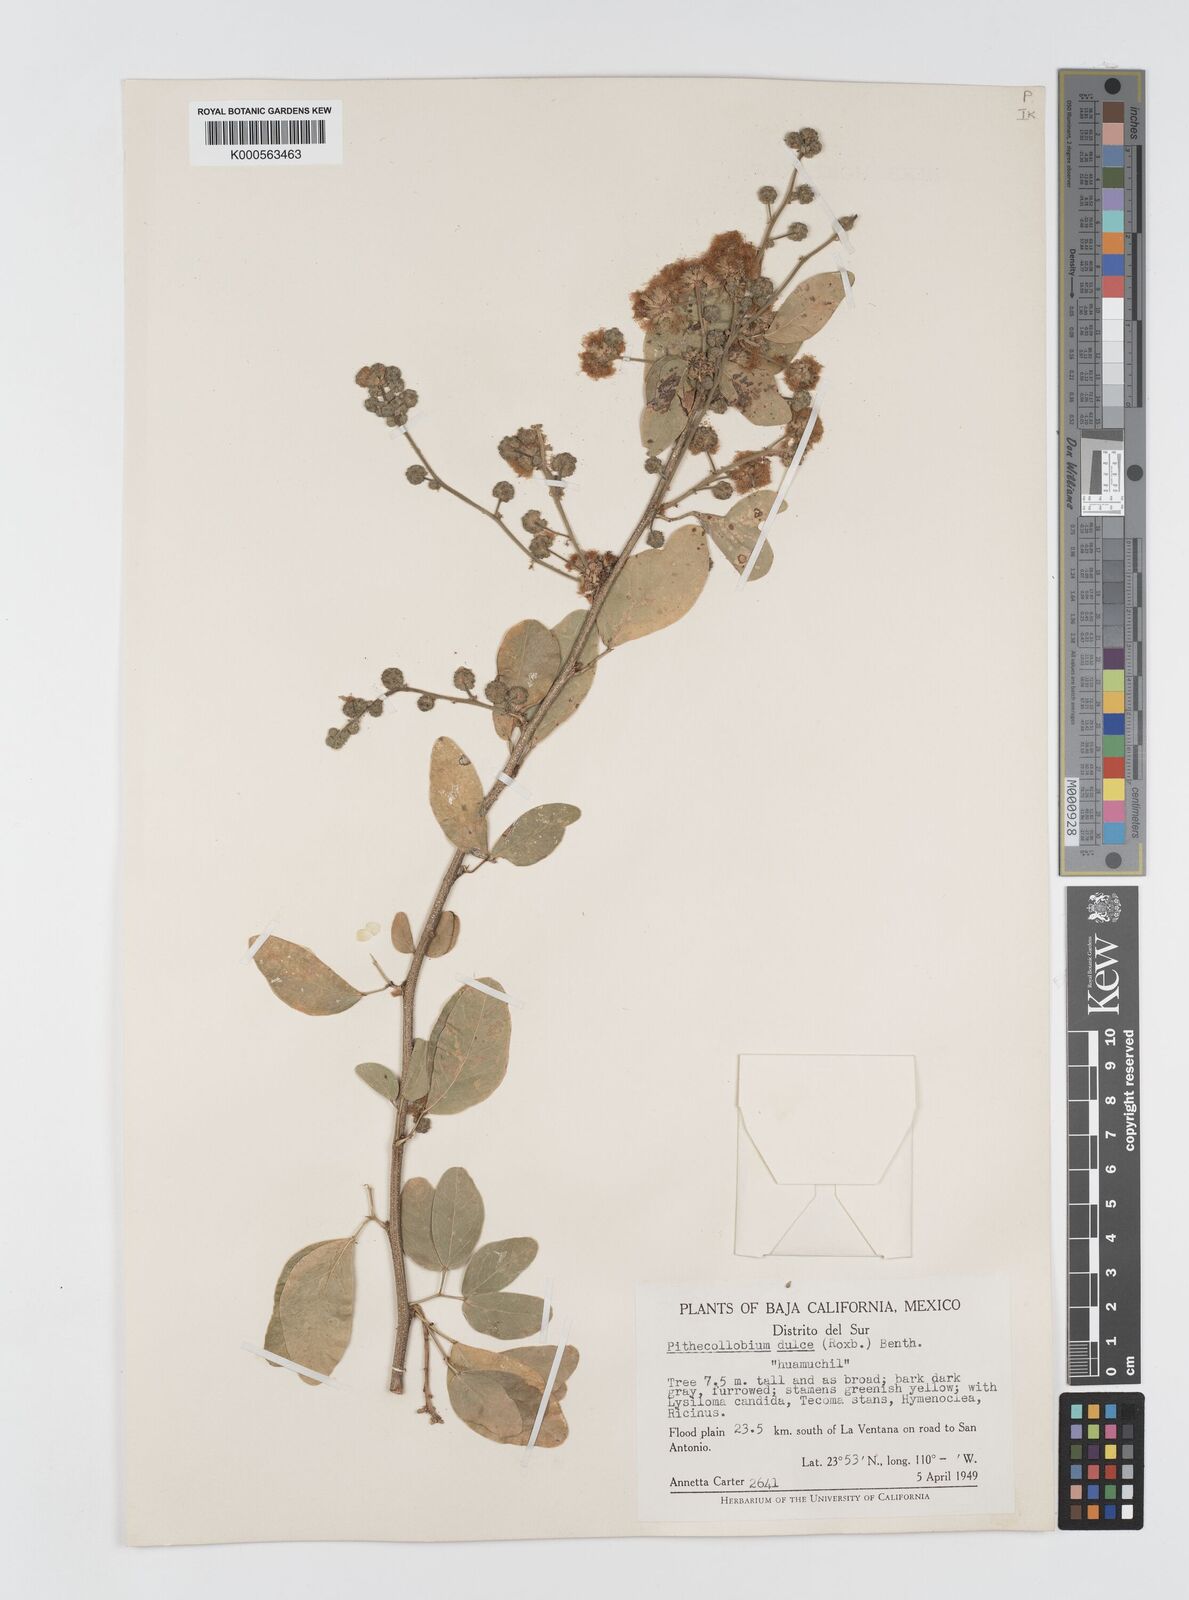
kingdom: Plantae
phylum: Tracheophyta
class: Magnoliopsida
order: Fabales
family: Fabaceae
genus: Pithecellobium
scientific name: Pithecellobium dulce
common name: Monkeypod
